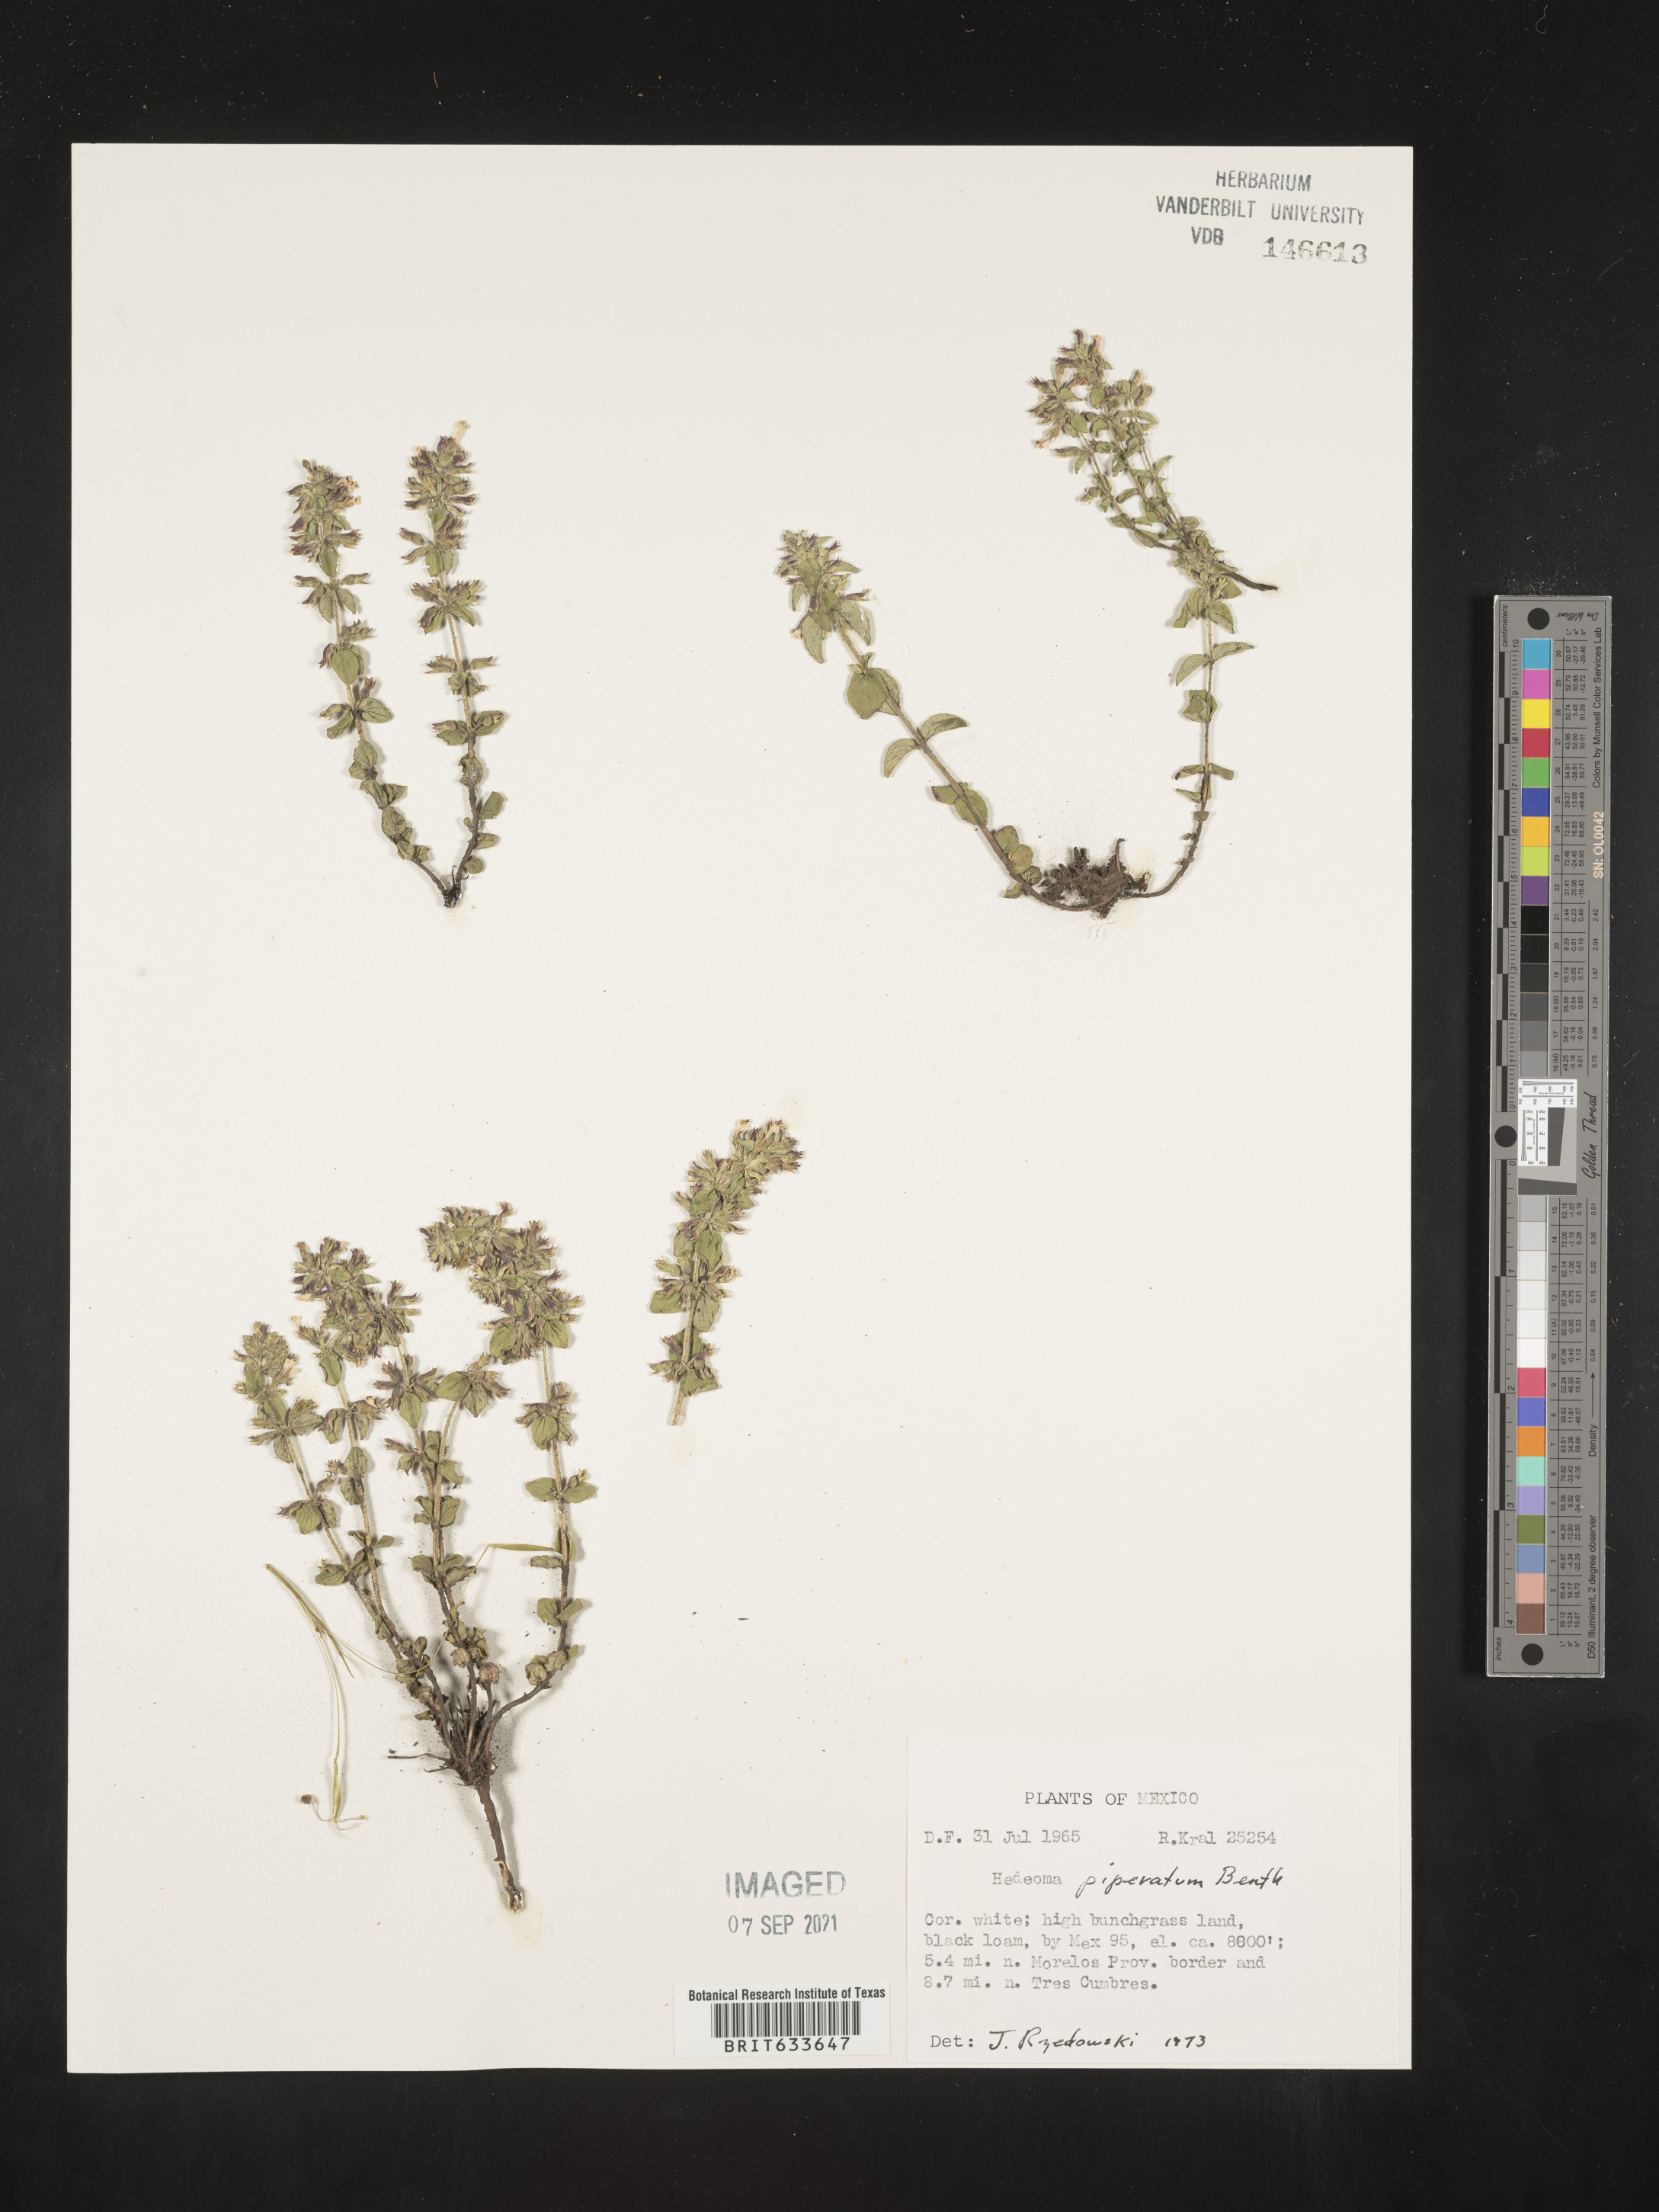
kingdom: Plantae
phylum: Tracheophyta
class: Magnoliopsida
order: Lamiales
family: Lamiaceae
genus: Hedeoma
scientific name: Hedeoma
